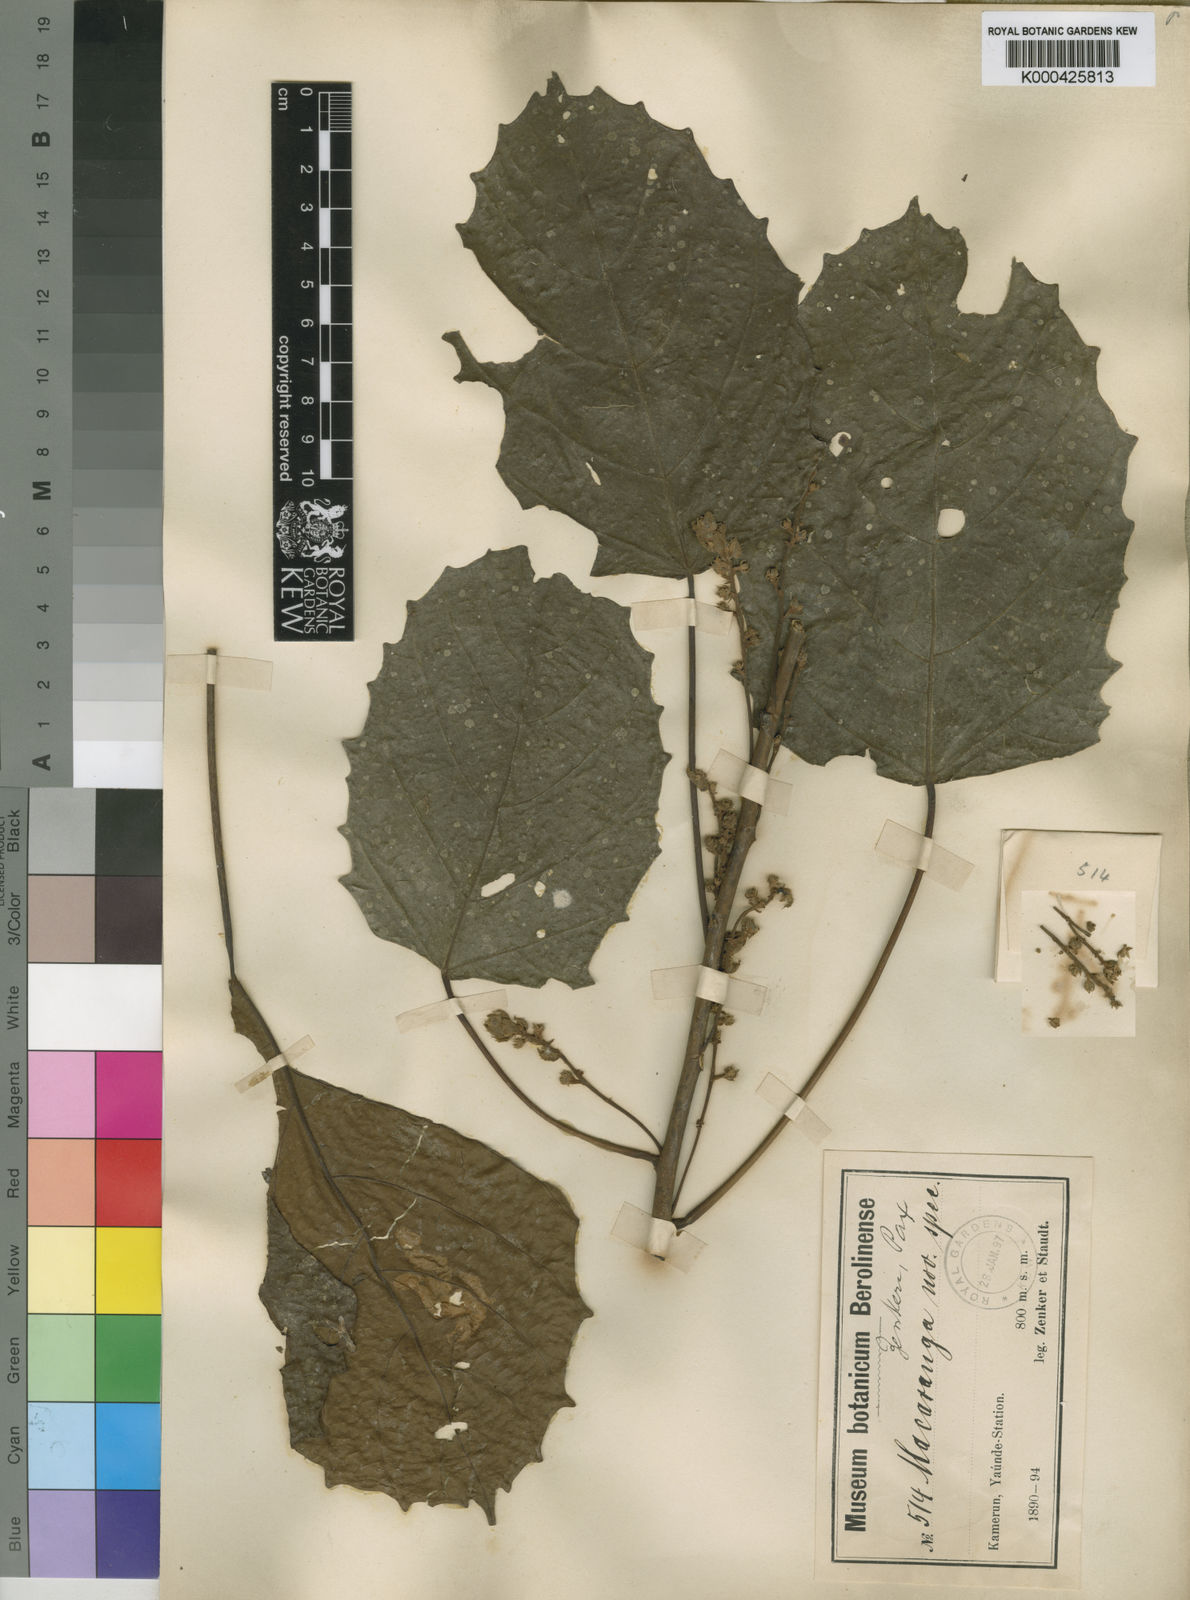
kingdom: Plantae
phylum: Tracheophyta
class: Magnoliopsida
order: Malpighiales
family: Euphorbiaceae
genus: Macaranga
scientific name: Macaranga
